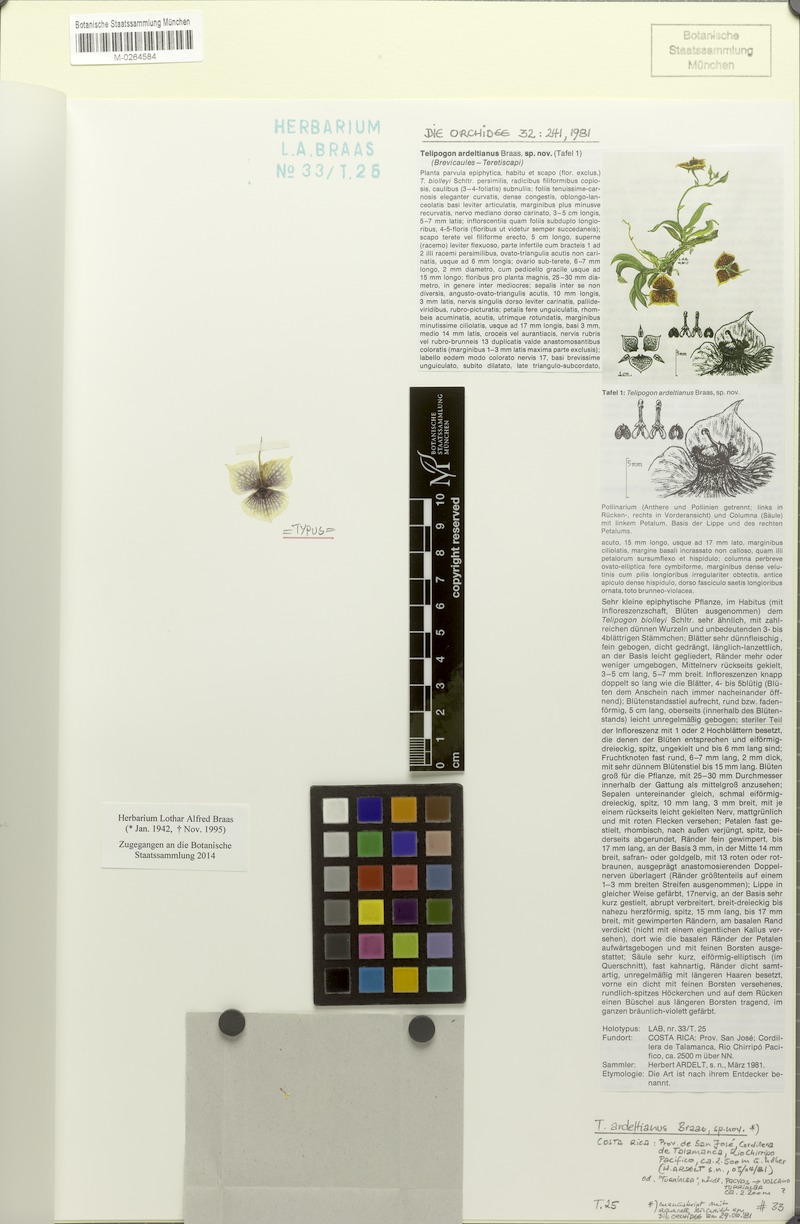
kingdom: Plantae
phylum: Tracheophyta
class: Liliopsida
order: Asparagales
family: Orchidaceae
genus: Telipogon
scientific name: Telipogon ardeltianus
